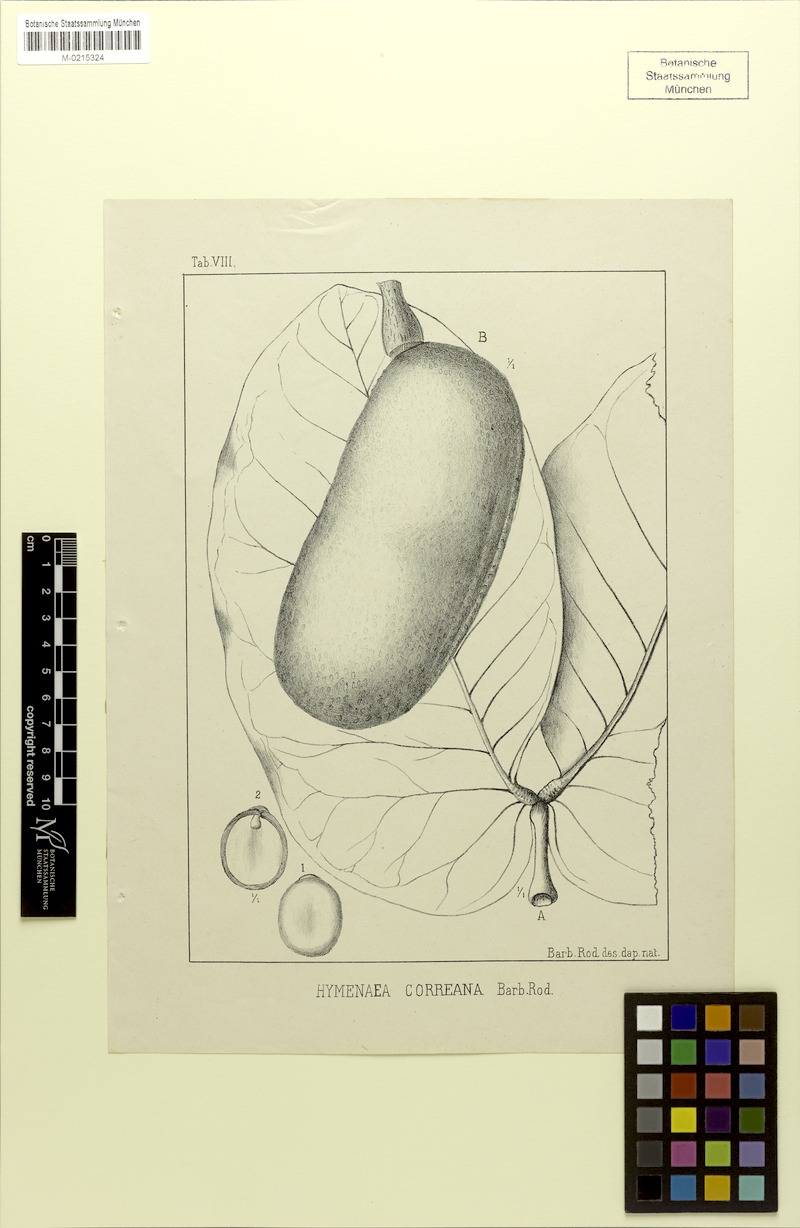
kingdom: Plantae
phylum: Tracheophyta
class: Magnoliopsida
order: Fabales
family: Fabaceae
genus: Hymenaea
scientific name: Hymenaea stigonocarpa
